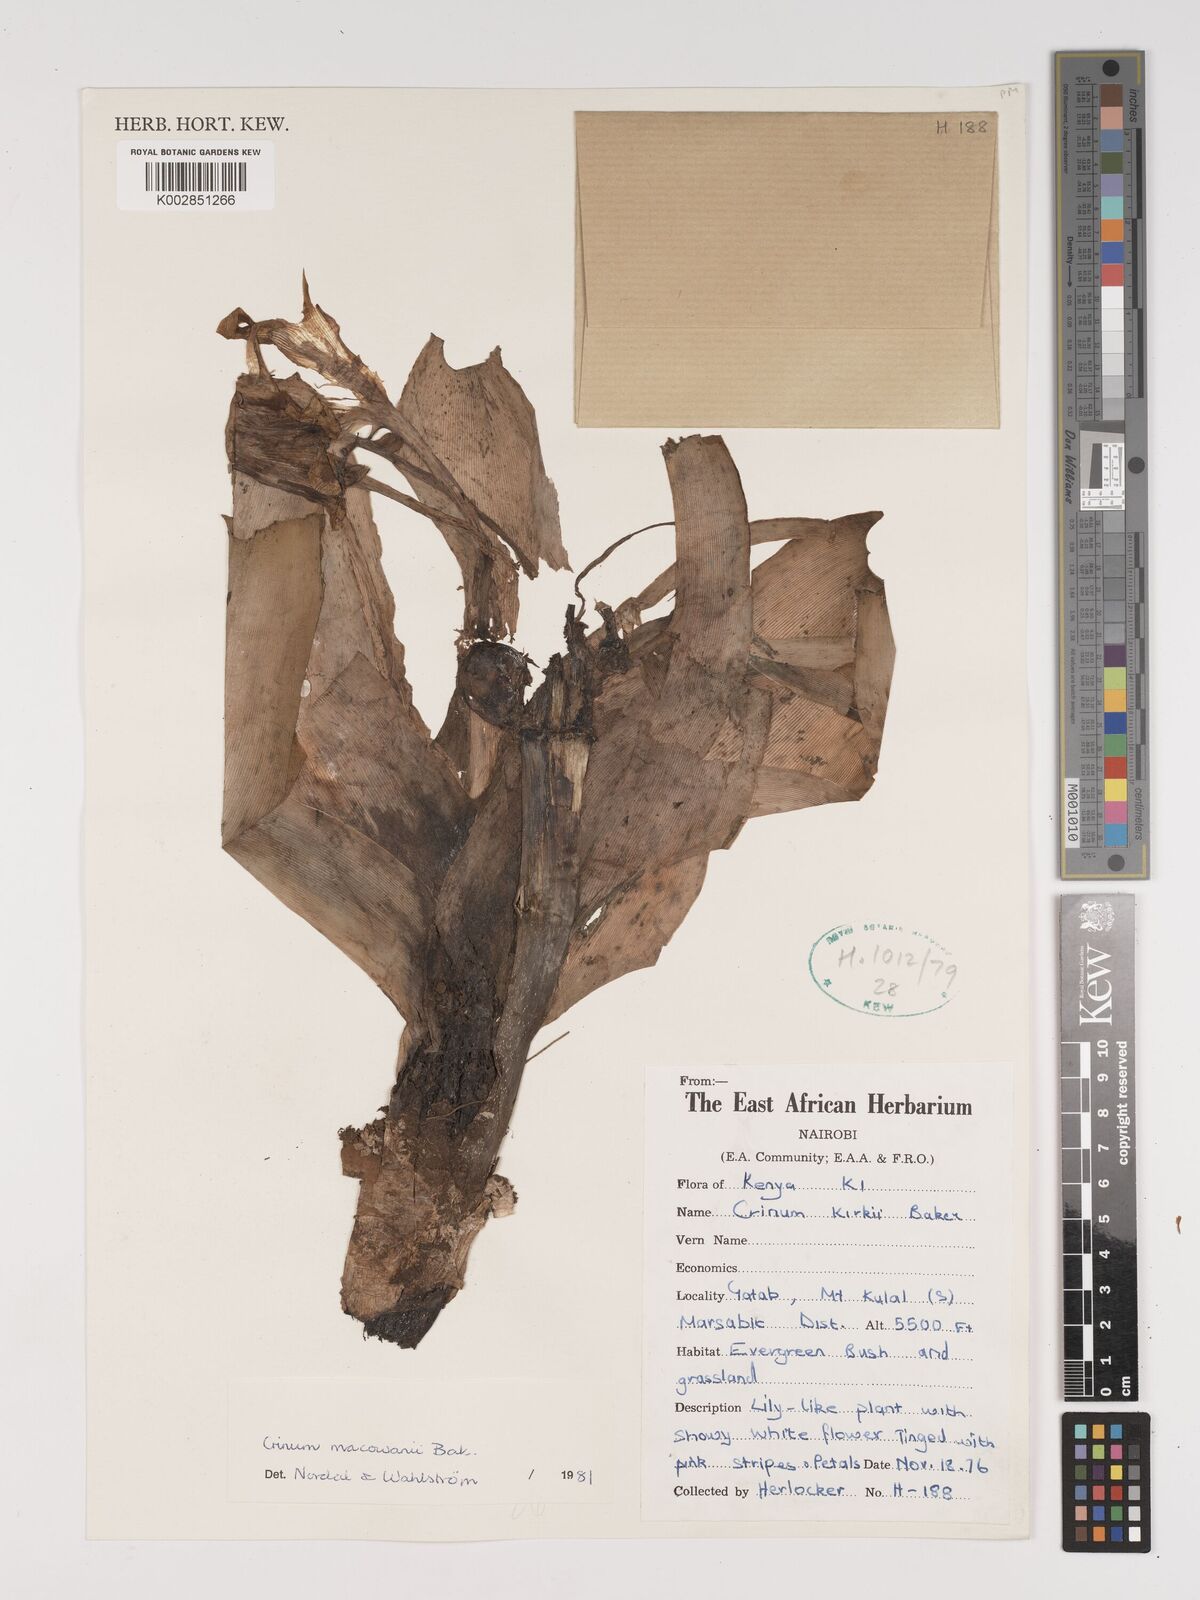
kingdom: Plantae
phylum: Tracheophyta
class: Liliopsida
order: Asparagales
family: Amaryllidaceae
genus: Crinum
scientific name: Crinum macowanii
